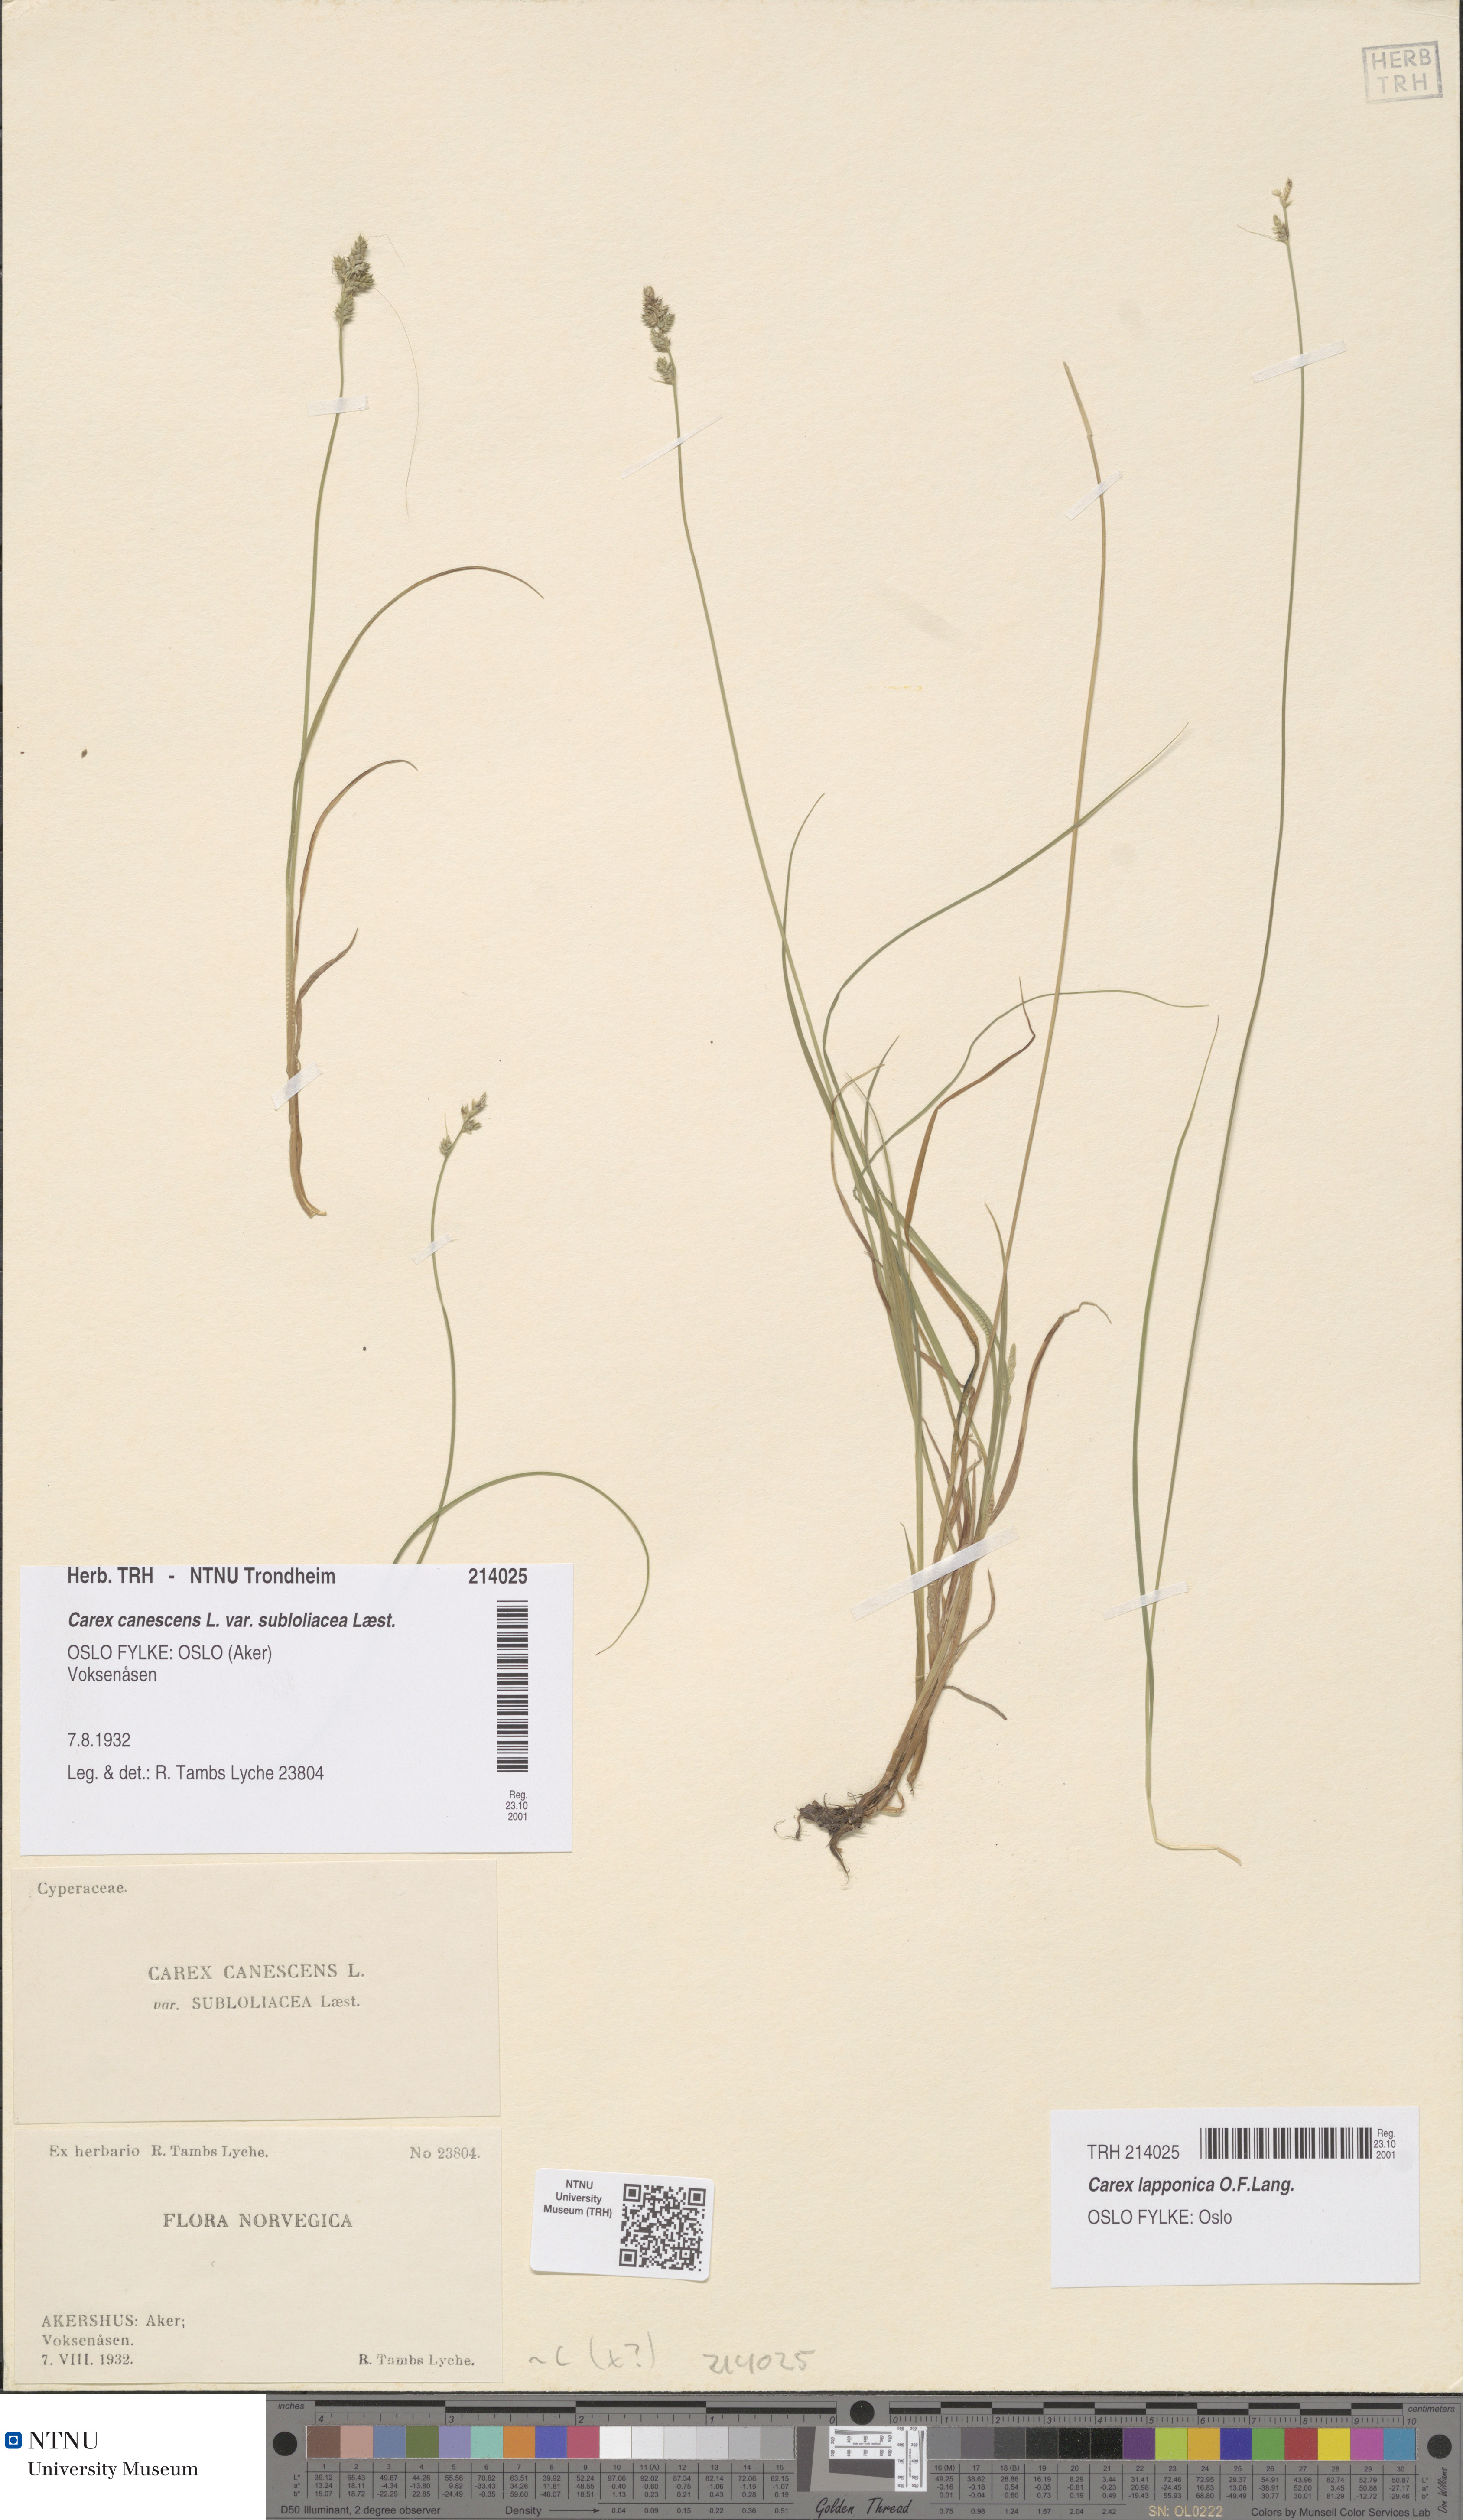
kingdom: Plantae
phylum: Tracheophyta
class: Liliopsida
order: Poales
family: Cyperaceae
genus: Carex
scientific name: Carex canescens
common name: White sedge
